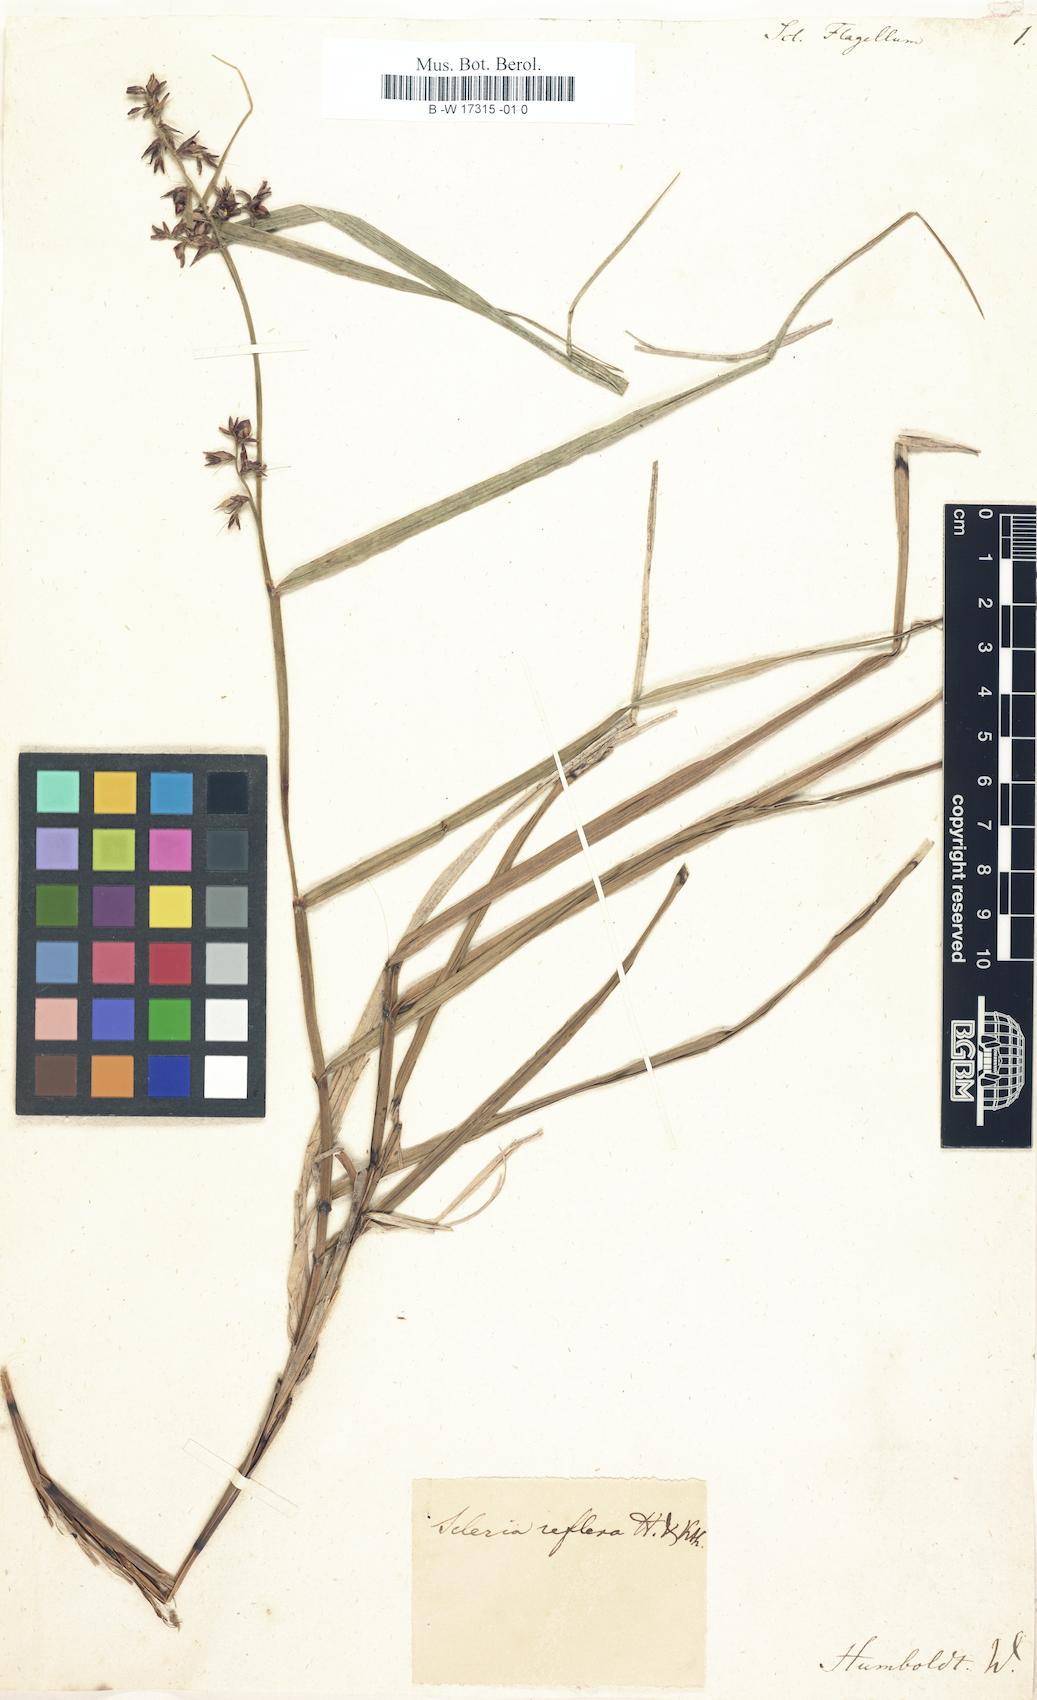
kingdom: Plantae
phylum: Tracheophyta
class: Liliopsida
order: Poales
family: Cyperaceae
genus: Scleria
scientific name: Scleria
